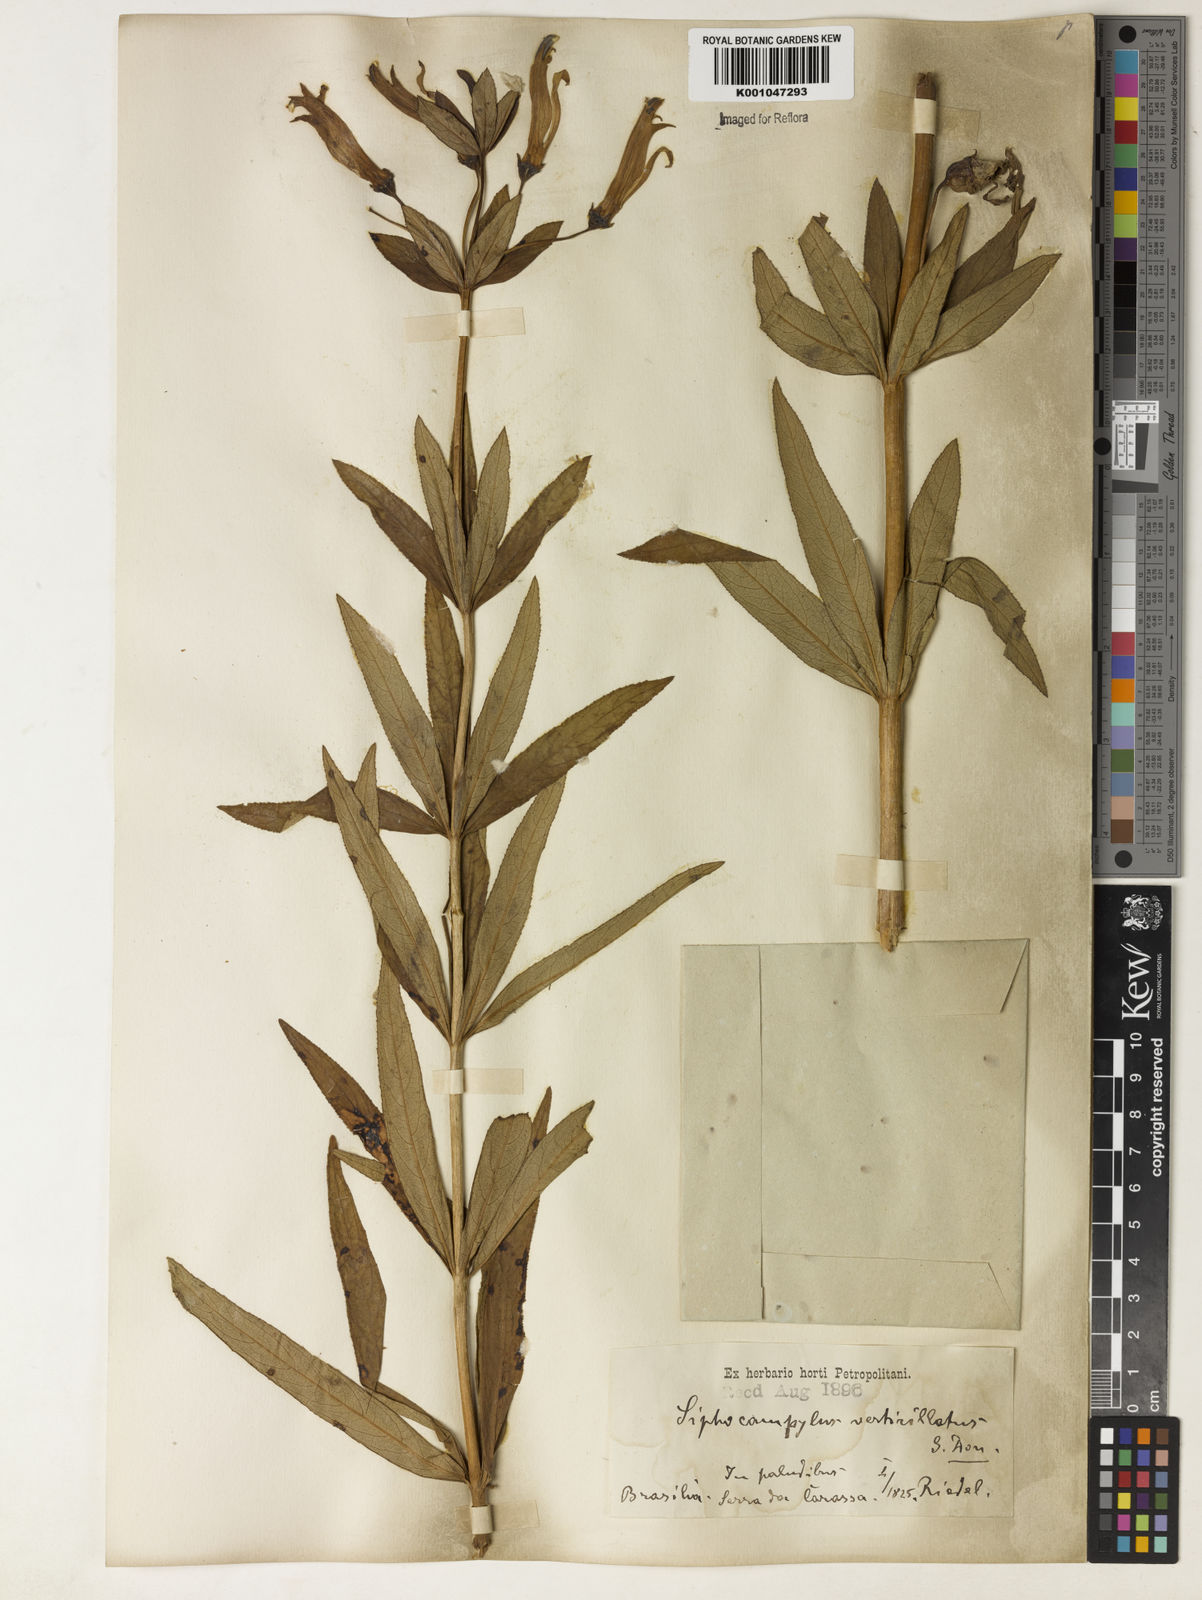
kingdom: Plantae
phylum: Tracheophyta
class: Magnoliopsida
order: Asterales
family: Campanulaceae
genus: Siphocampylus
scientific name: Siphocampylus verticillatus
